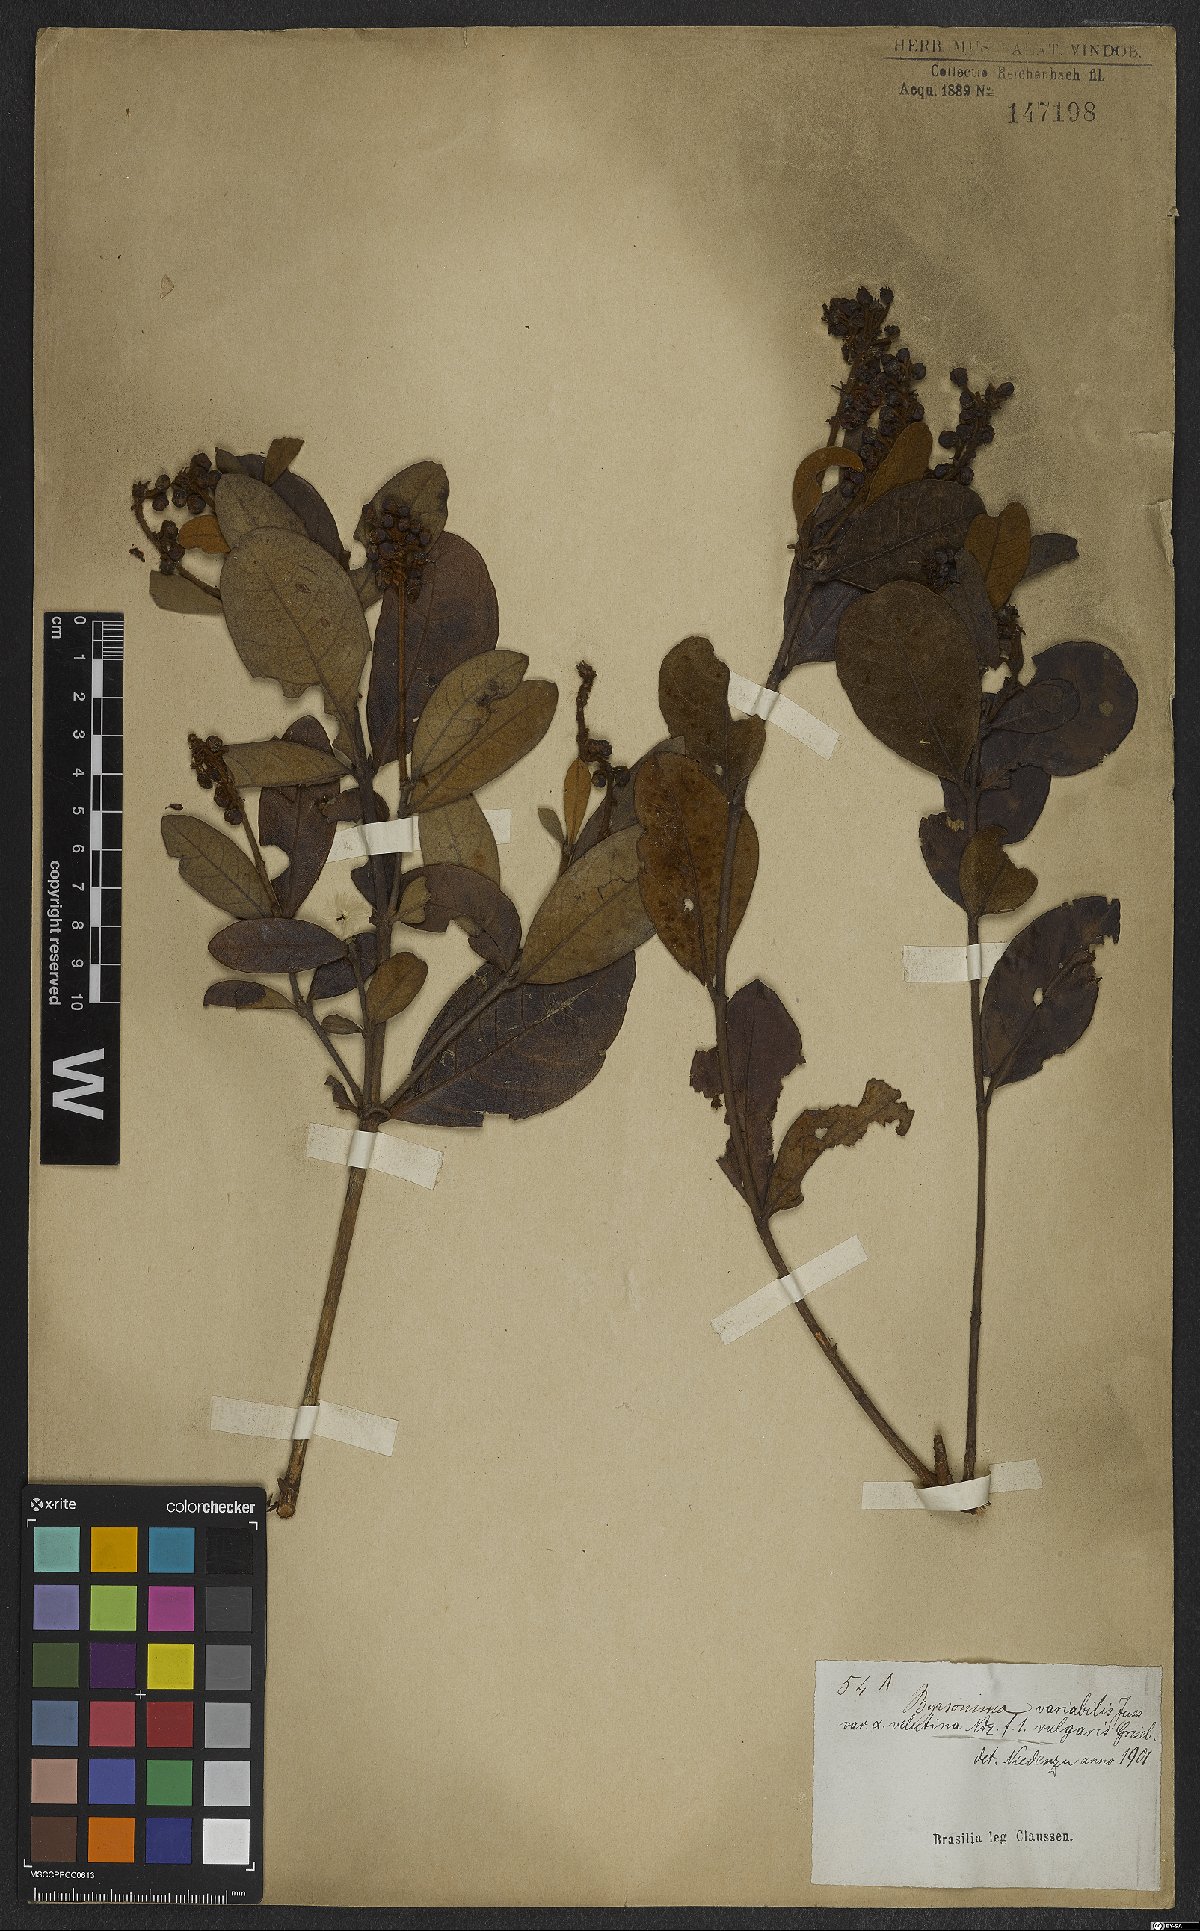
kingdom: Plantae
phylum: Tracheophyta
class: Magnoliopsida
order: Malpighiales
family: Malpighiaceae
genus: Byrsonima
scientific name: Byrsonima variabilis
